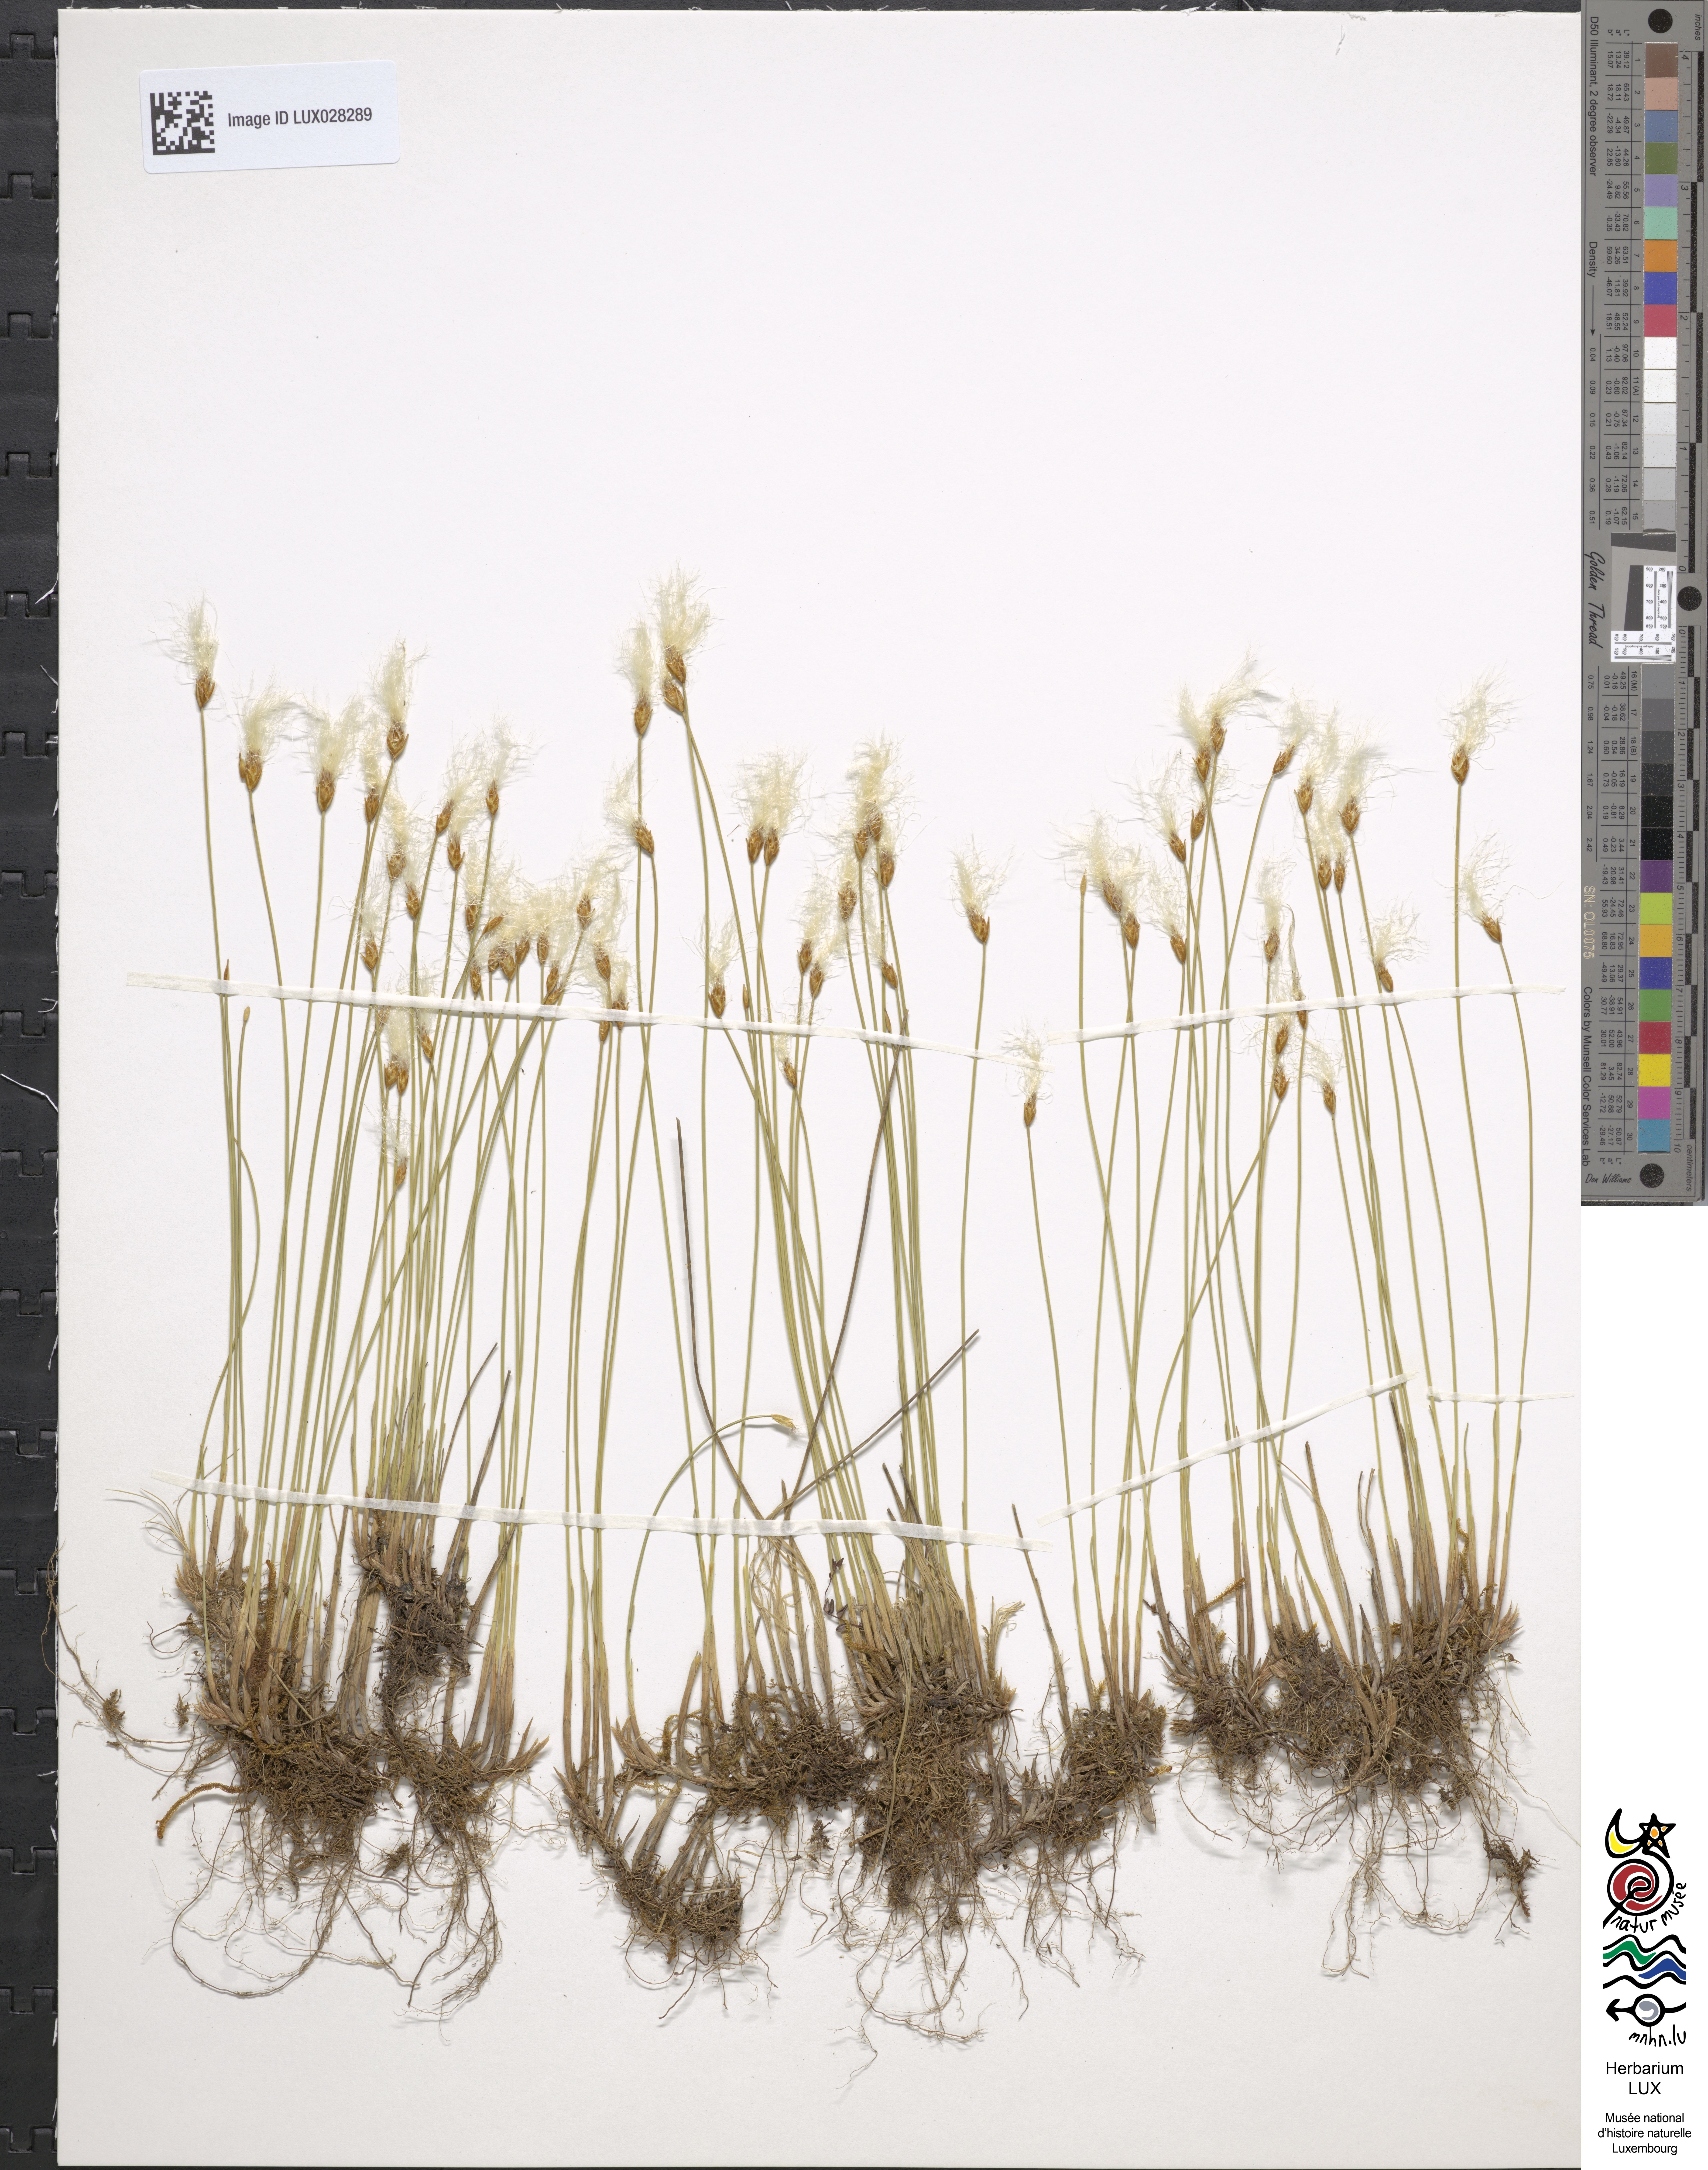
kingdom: Plantae
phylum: Tracheophyta
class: Liliopsida
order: Poales
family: Cyperaceae
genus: Trichophorum
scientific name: Trichophorum alpinum
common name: Alpine bulrush
